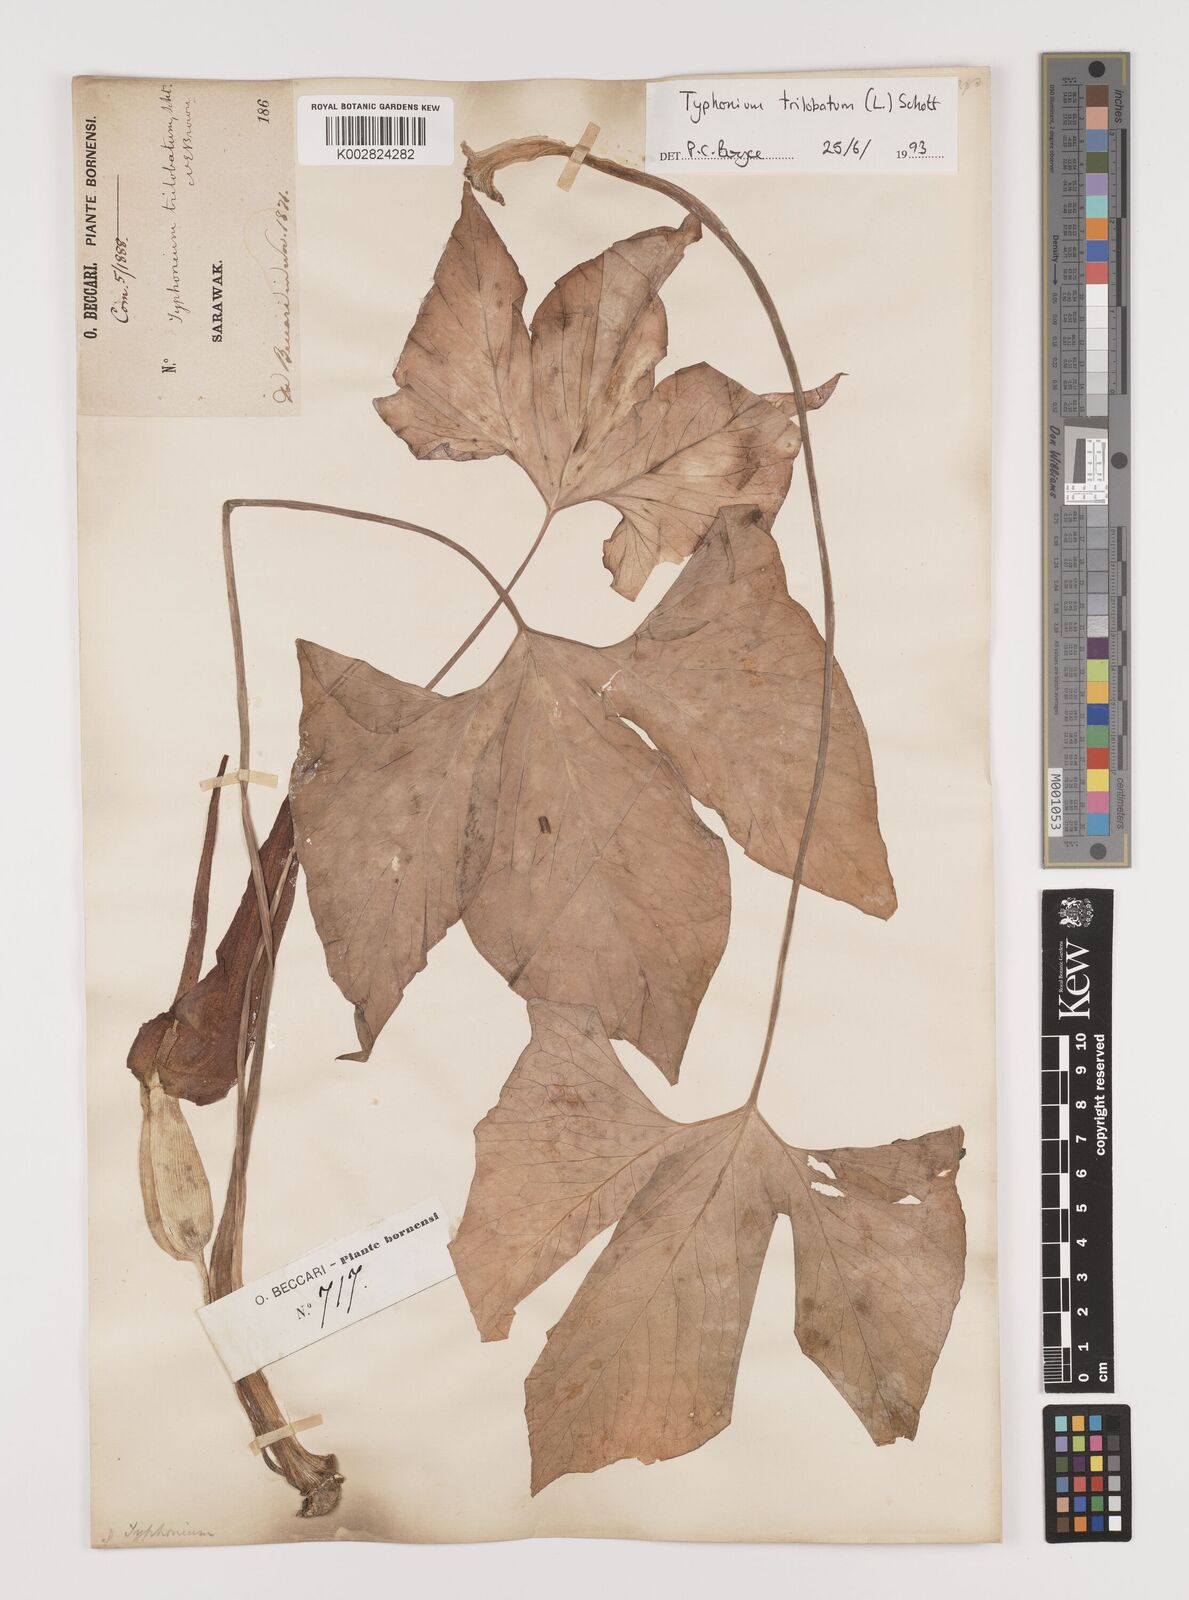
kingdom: Plantae
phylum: Tracheophyta
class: Liliopsida
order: Alismatales
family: Araceae
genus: Typhonium
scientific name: Typhonium trilobatum
